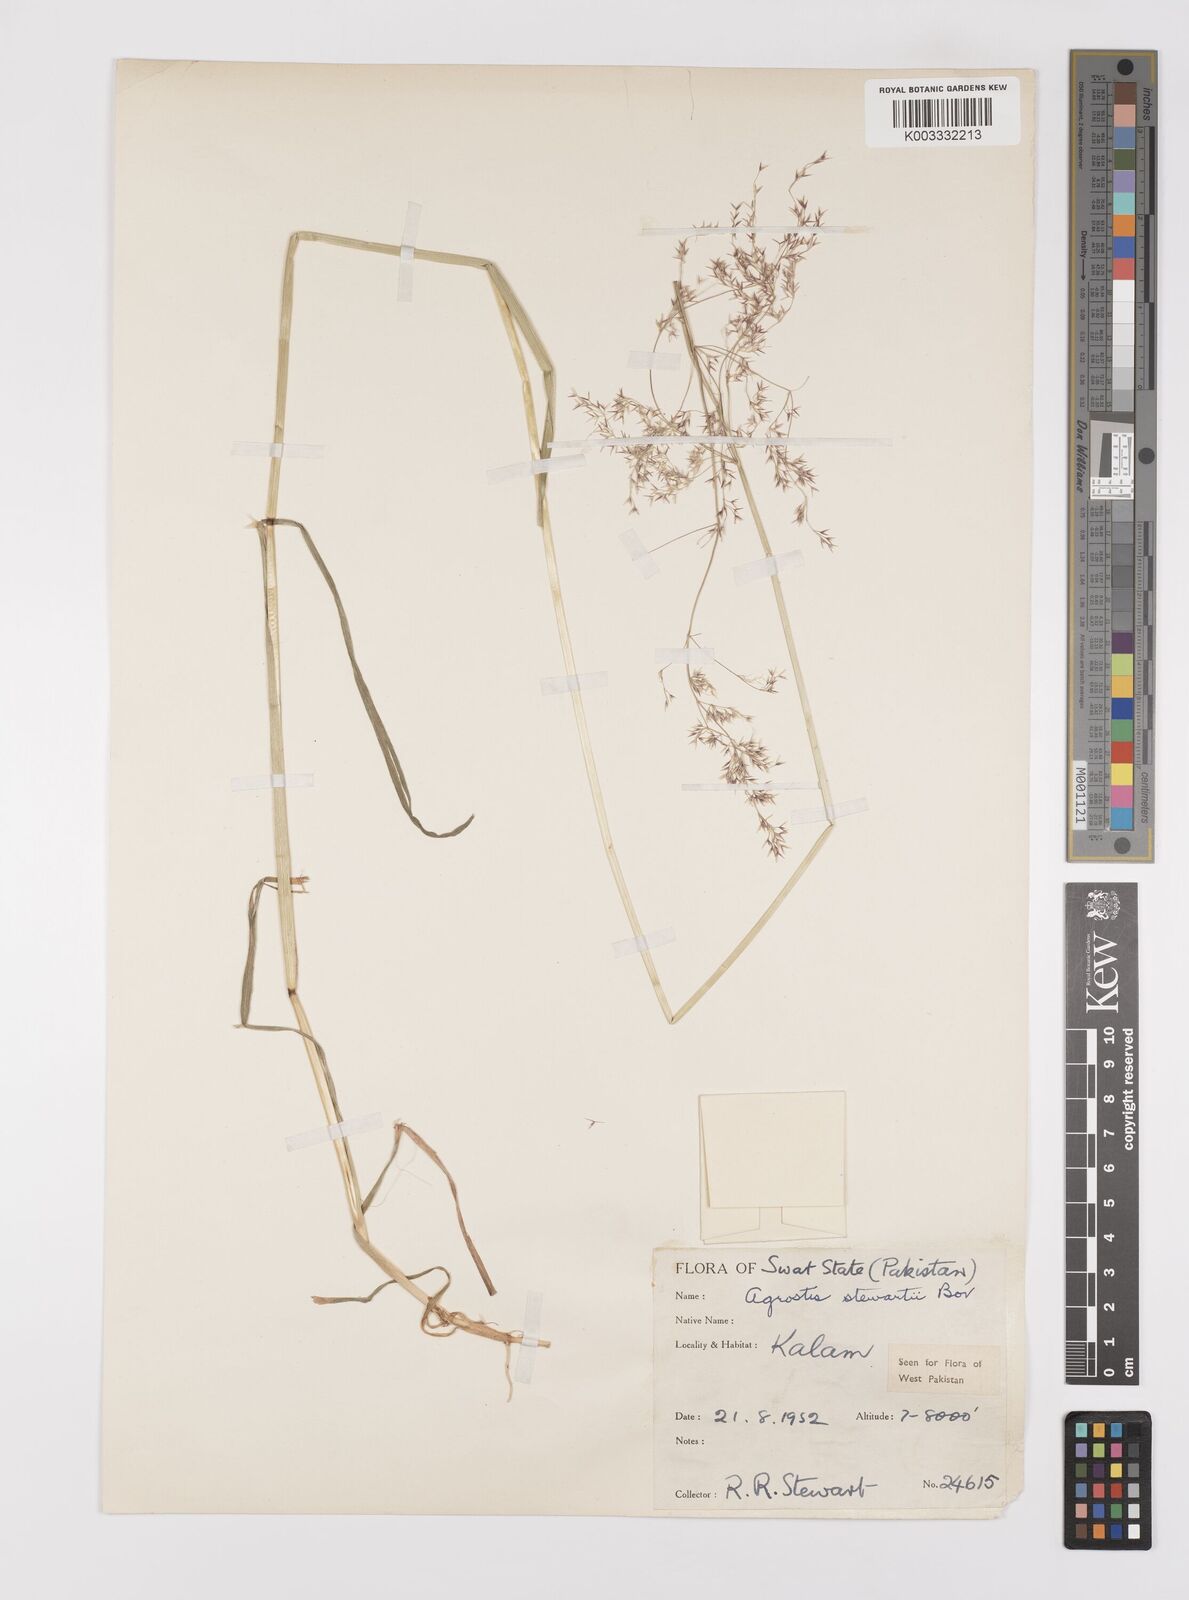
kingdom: Plantae
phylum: Tracheophyta
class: Liliopsida
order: Poales
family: Poaceae
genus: Polypogon
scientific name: Polypogon hissaricus
